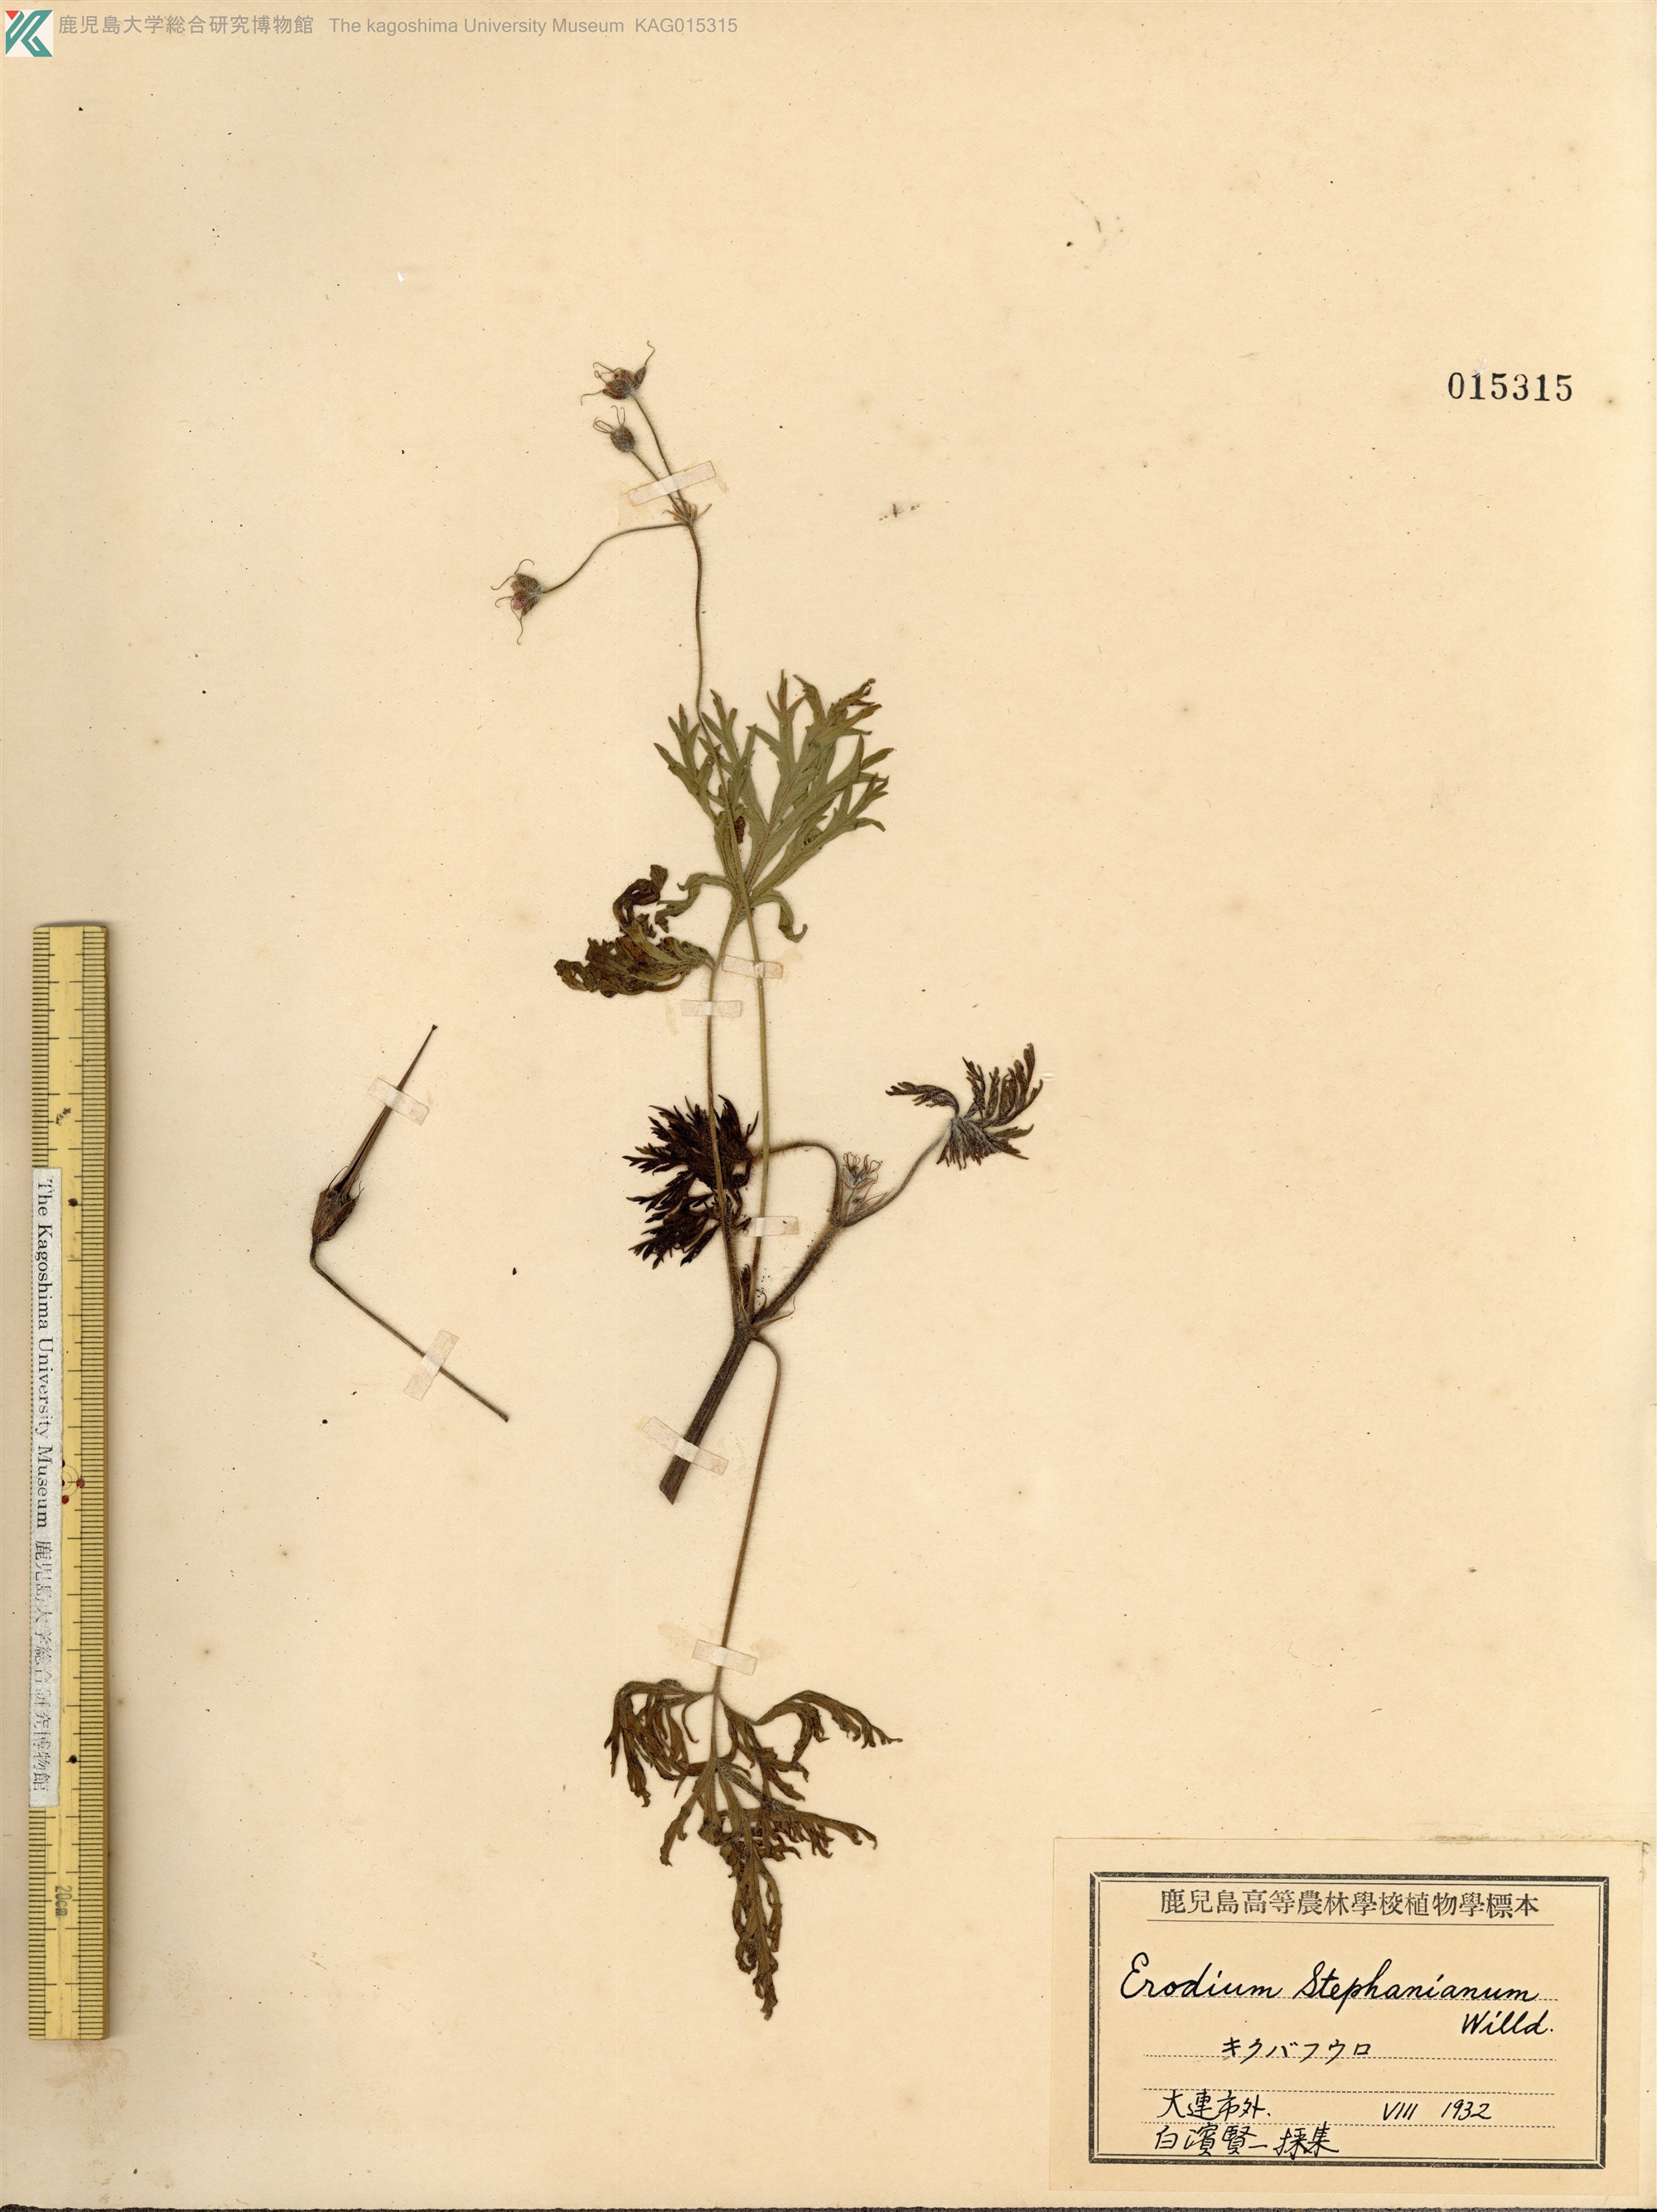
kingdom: Plantae
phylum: Tracheophyta
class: Magnoliopsida
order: Geraniales
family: Geraniaceae
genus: Erodium
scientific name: Erodium stephanianum
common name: Stephen's stork's bill
